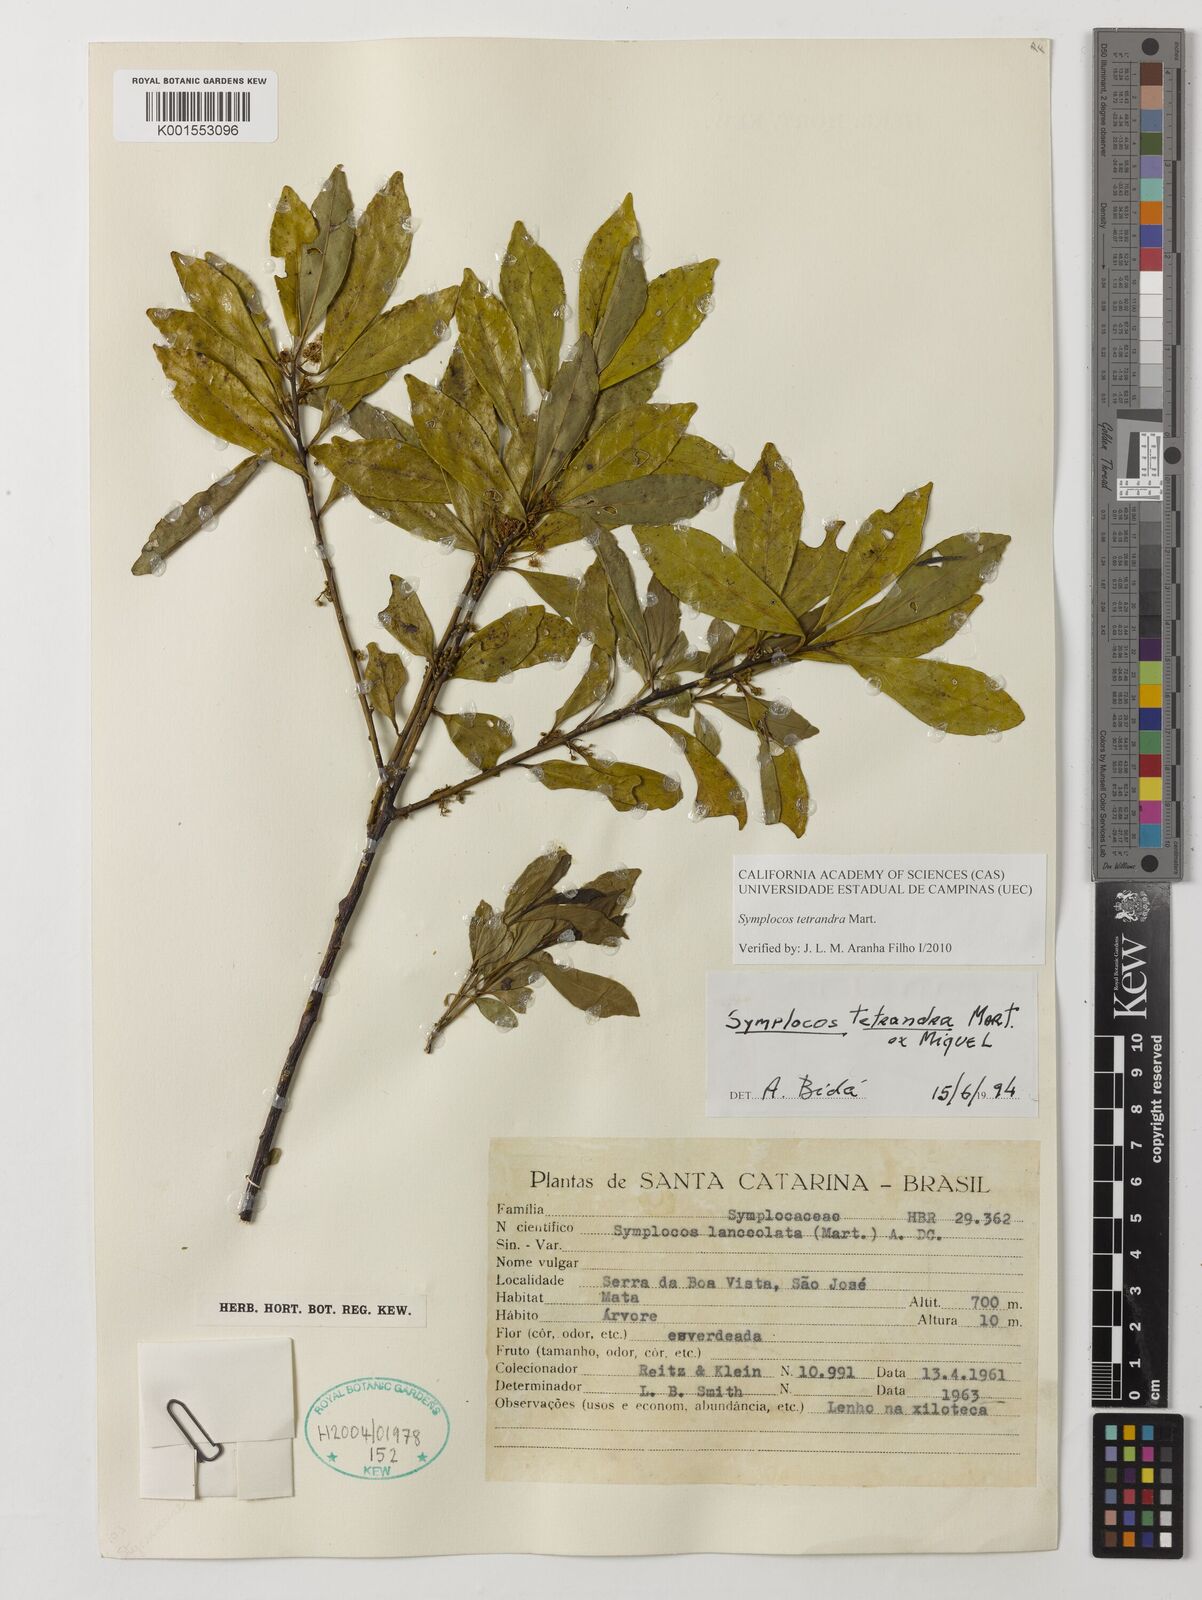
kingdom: Plantae
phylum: Tracheophyta
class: Magnoliopsida
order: Ericales
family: Symplocaceae
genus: Symplocos
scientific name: Symplocos tetrandra
